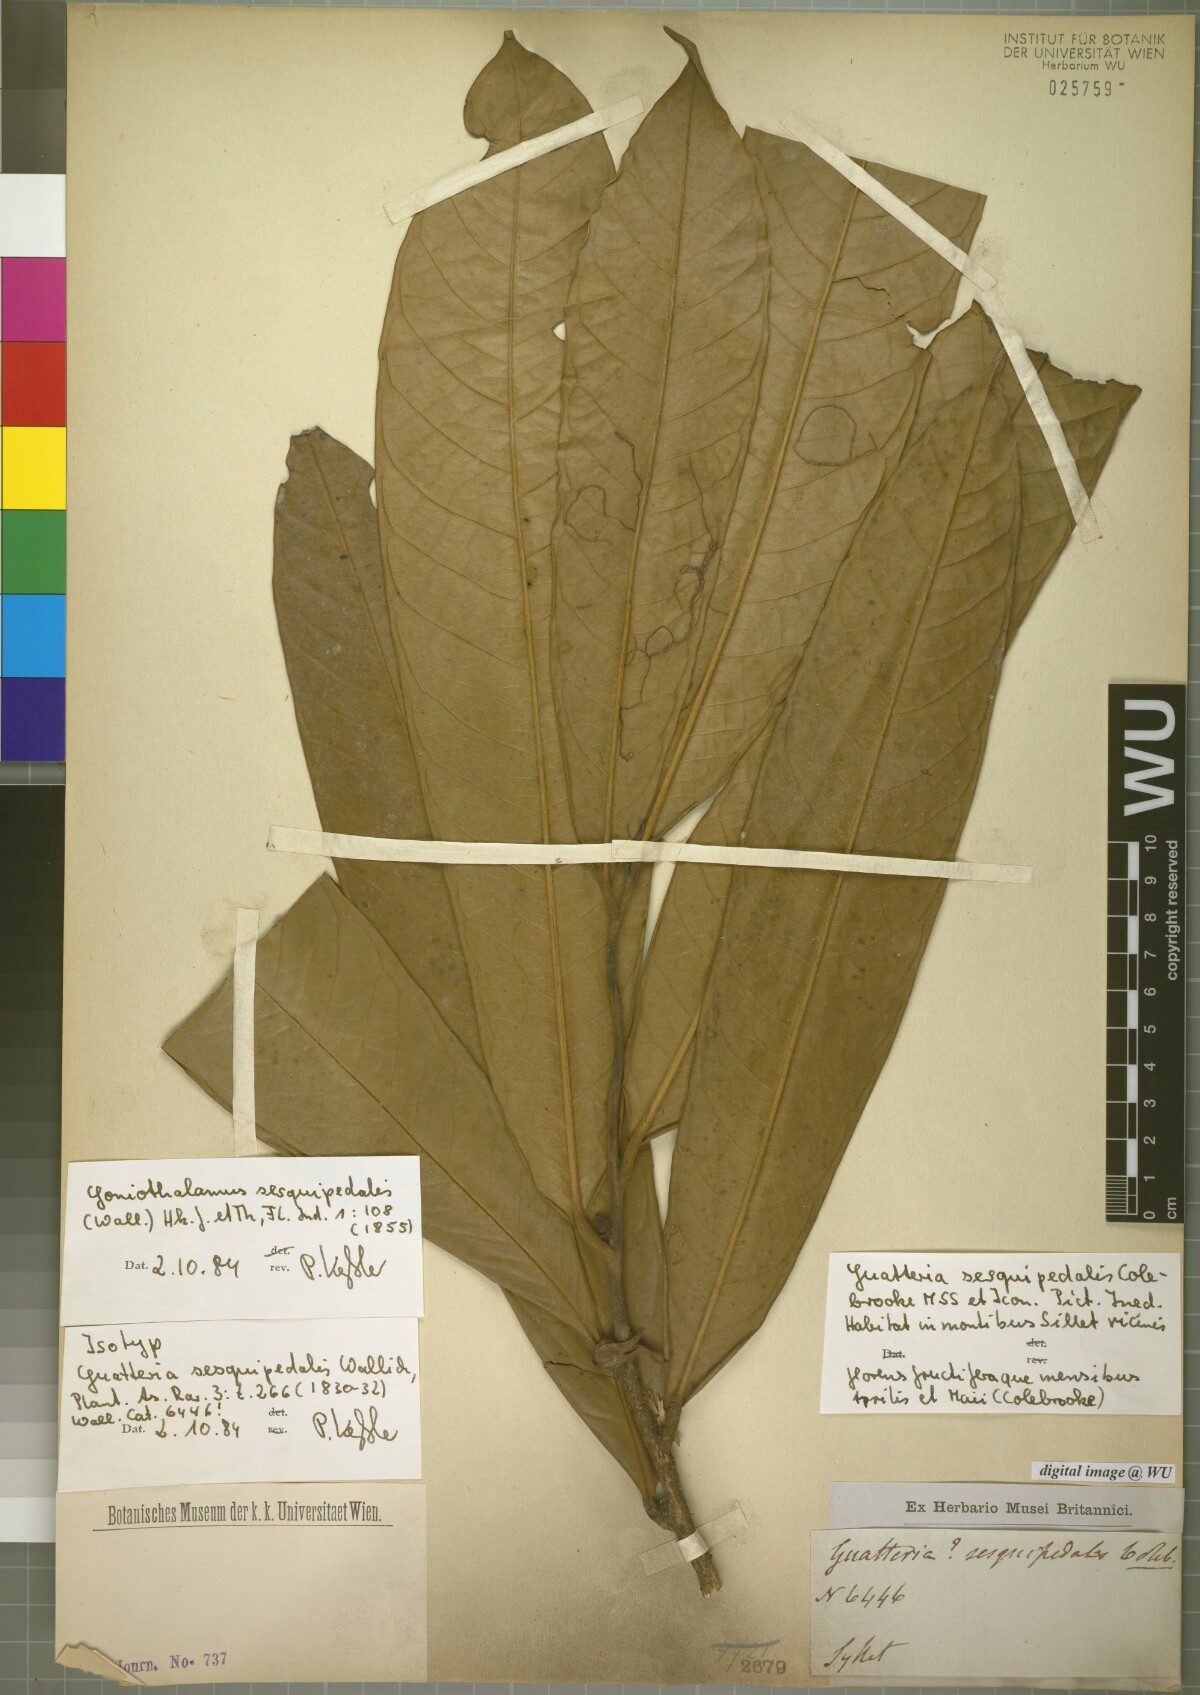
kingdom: Plantae
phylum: Tracheophyta
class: Magnoliopsida
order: Magnoliales
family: Annonaceae
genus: Goniothalamus
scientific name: Goniothalamus sesquipedalis
